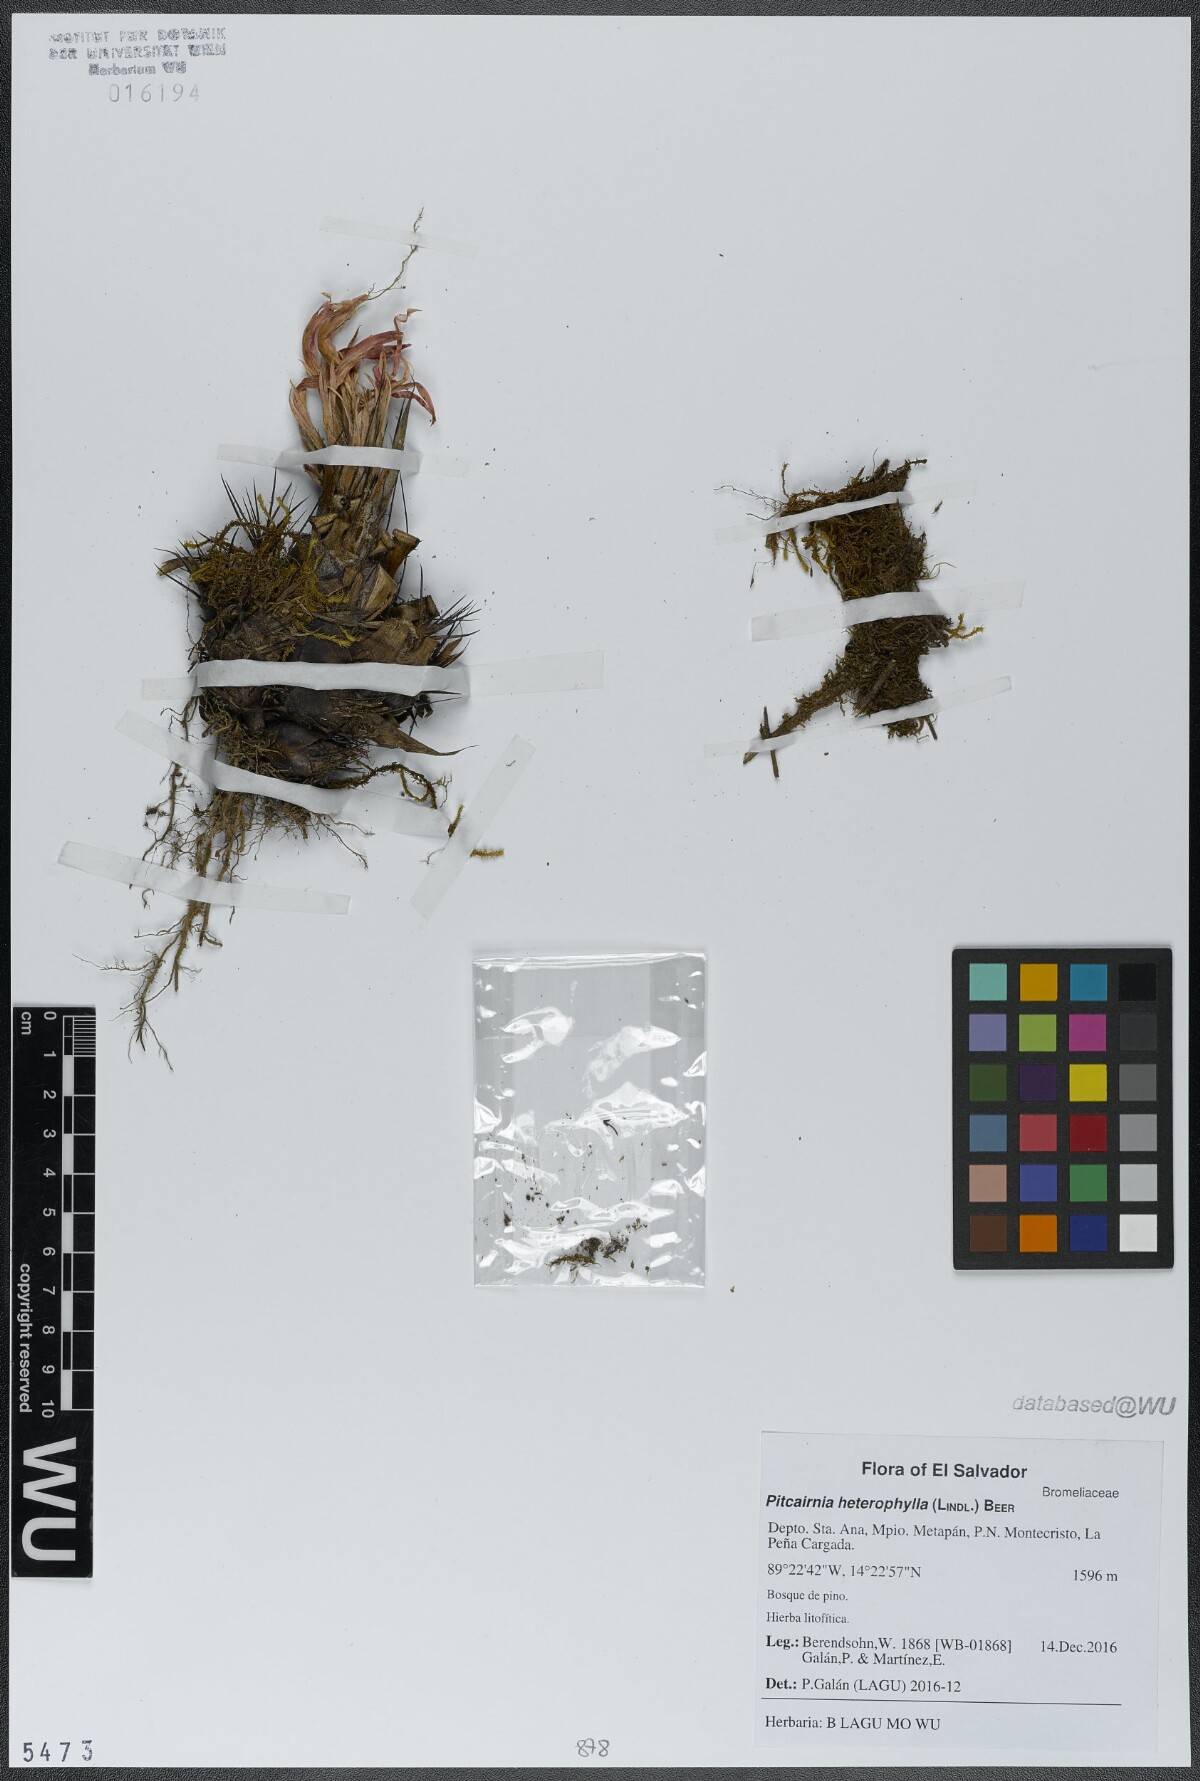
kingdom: Plantae
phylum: Tracheophyta
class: Liliopsida
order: Poales
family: Bromeliaceae
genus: Pitcairnia
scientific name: Pitcairnia heterophylla
